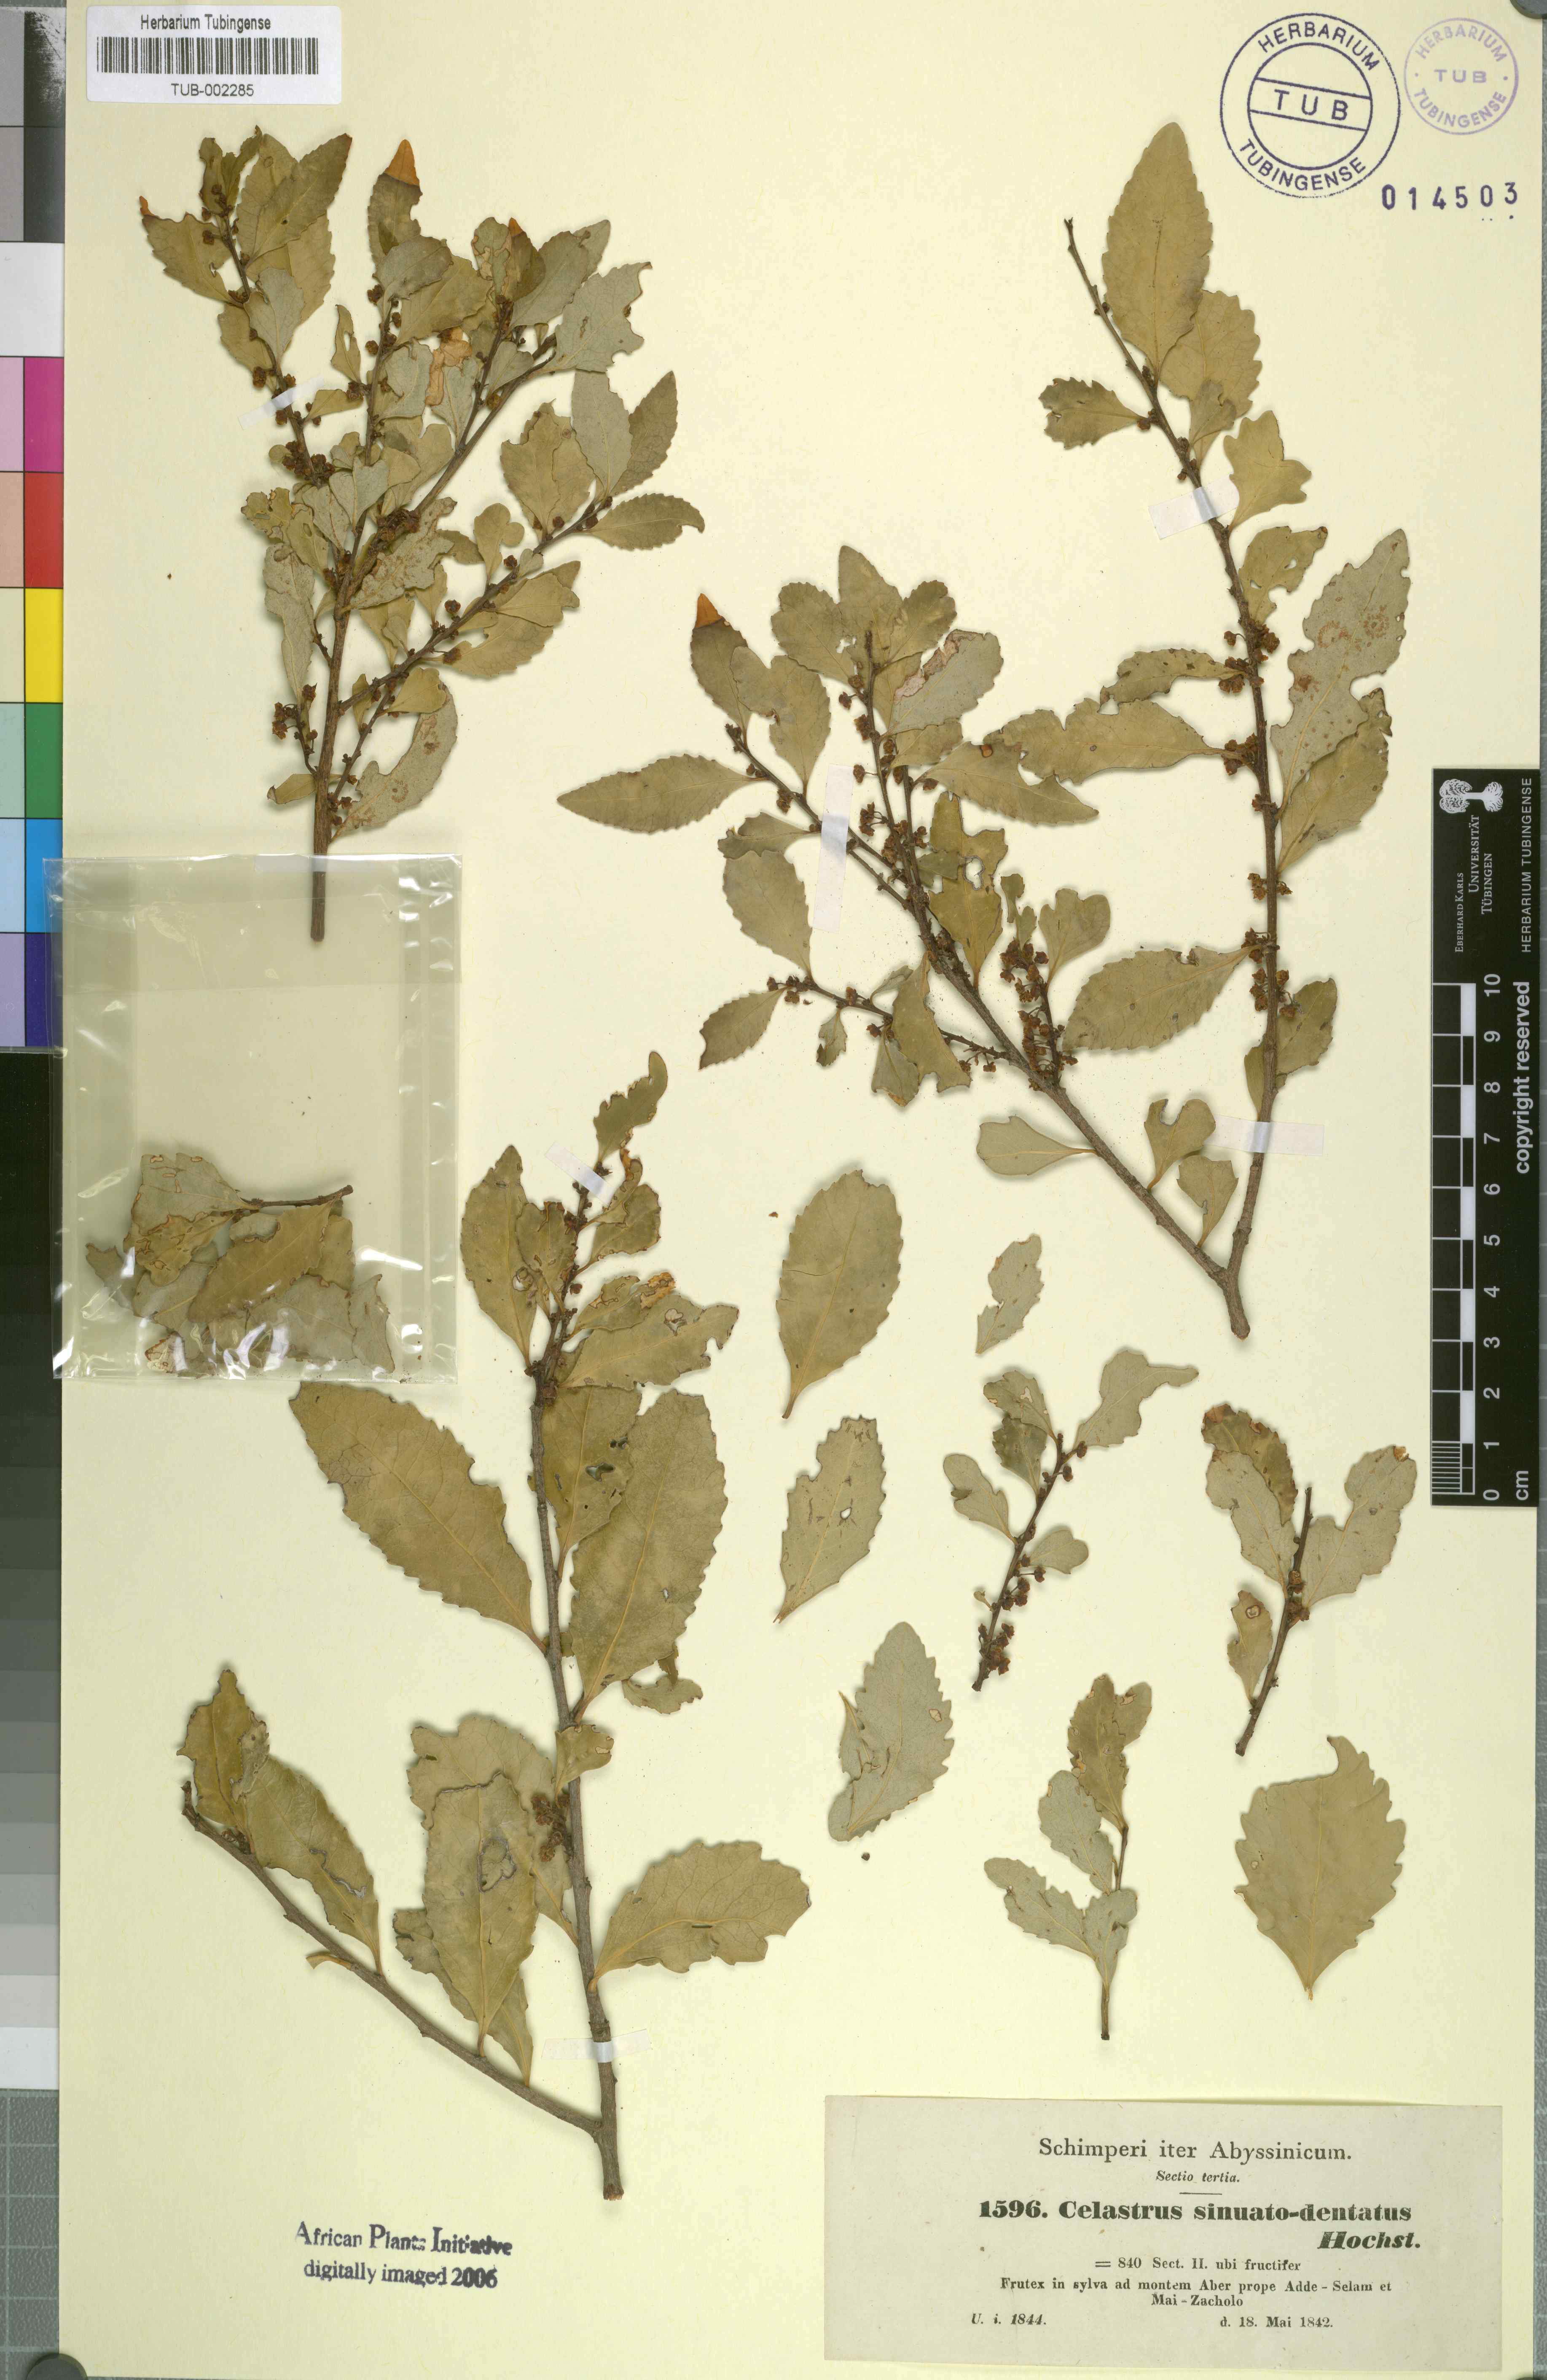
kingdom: Plantae
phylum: Tracheophyta
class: Magnoliopsida
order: Celastrales
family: Celastraceae
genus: Gymnosporia
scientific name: Gymnosporia undata
